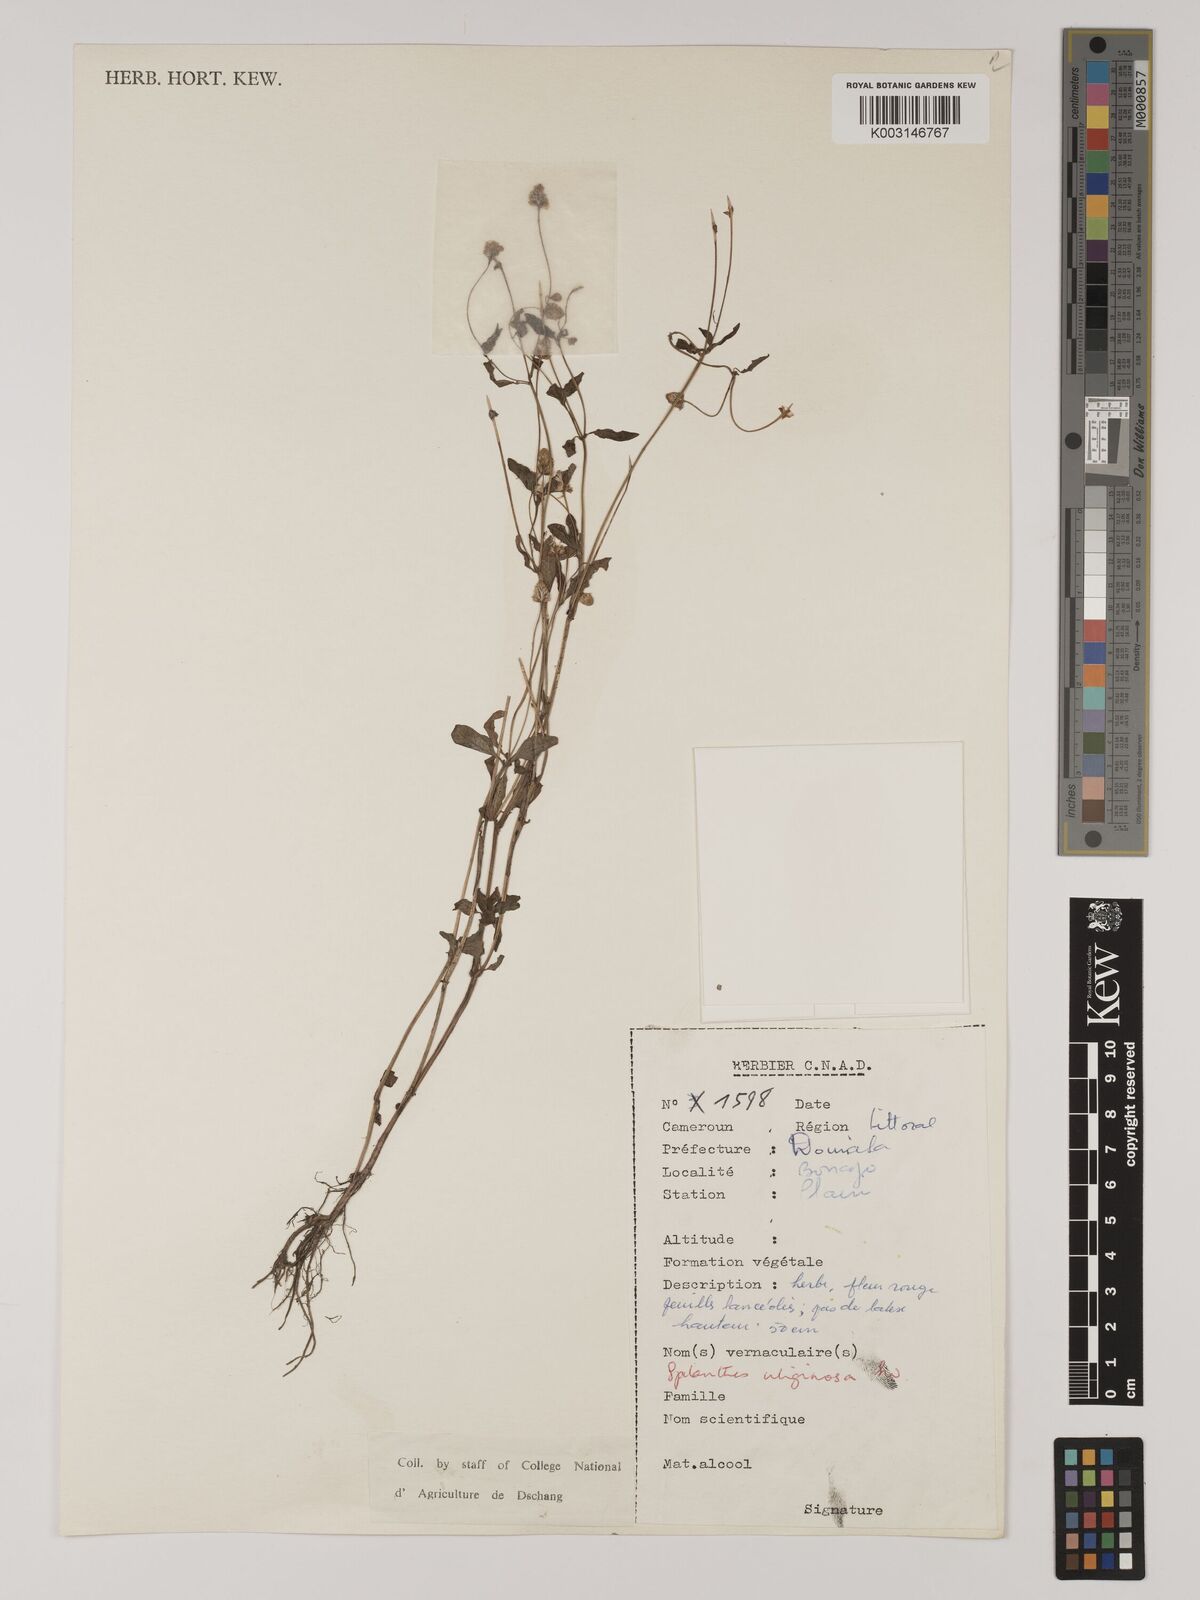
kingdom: Plantae
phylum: Tracheophyta
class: Magnoliopsida
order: Asterales
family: Asteraceae
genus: Acmella
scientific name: Acmella uliginosa
